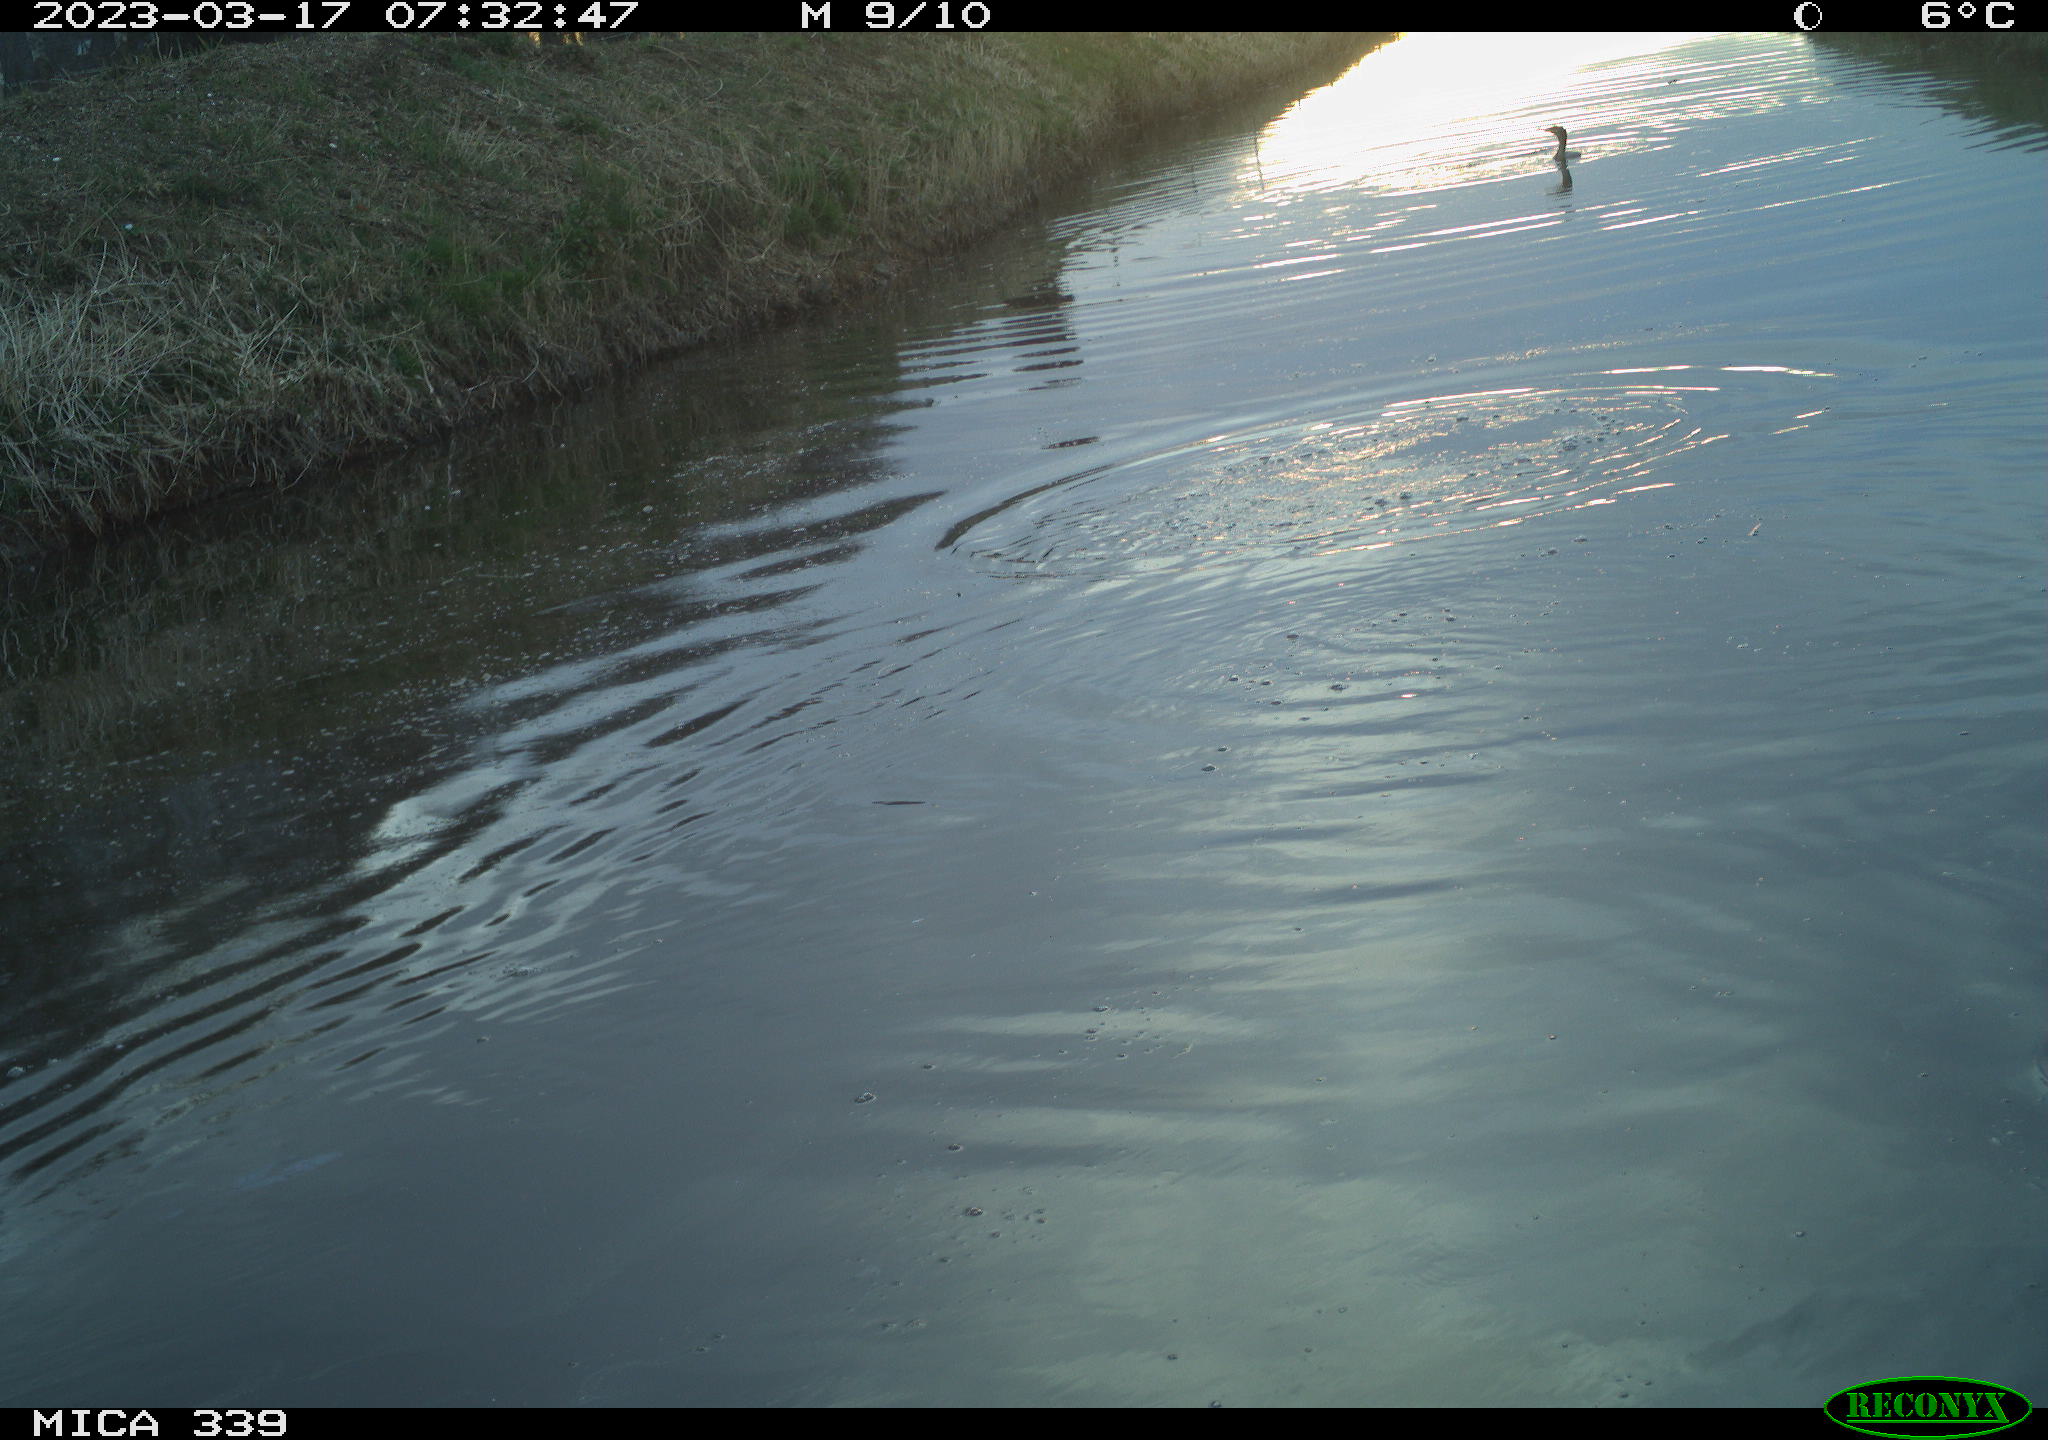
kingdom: Animalia
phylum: Chordata
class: Aves
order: Pelecaniformes
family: Ardeidae
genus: Ardea
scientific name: Ardea cinerea
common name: Grey heron
